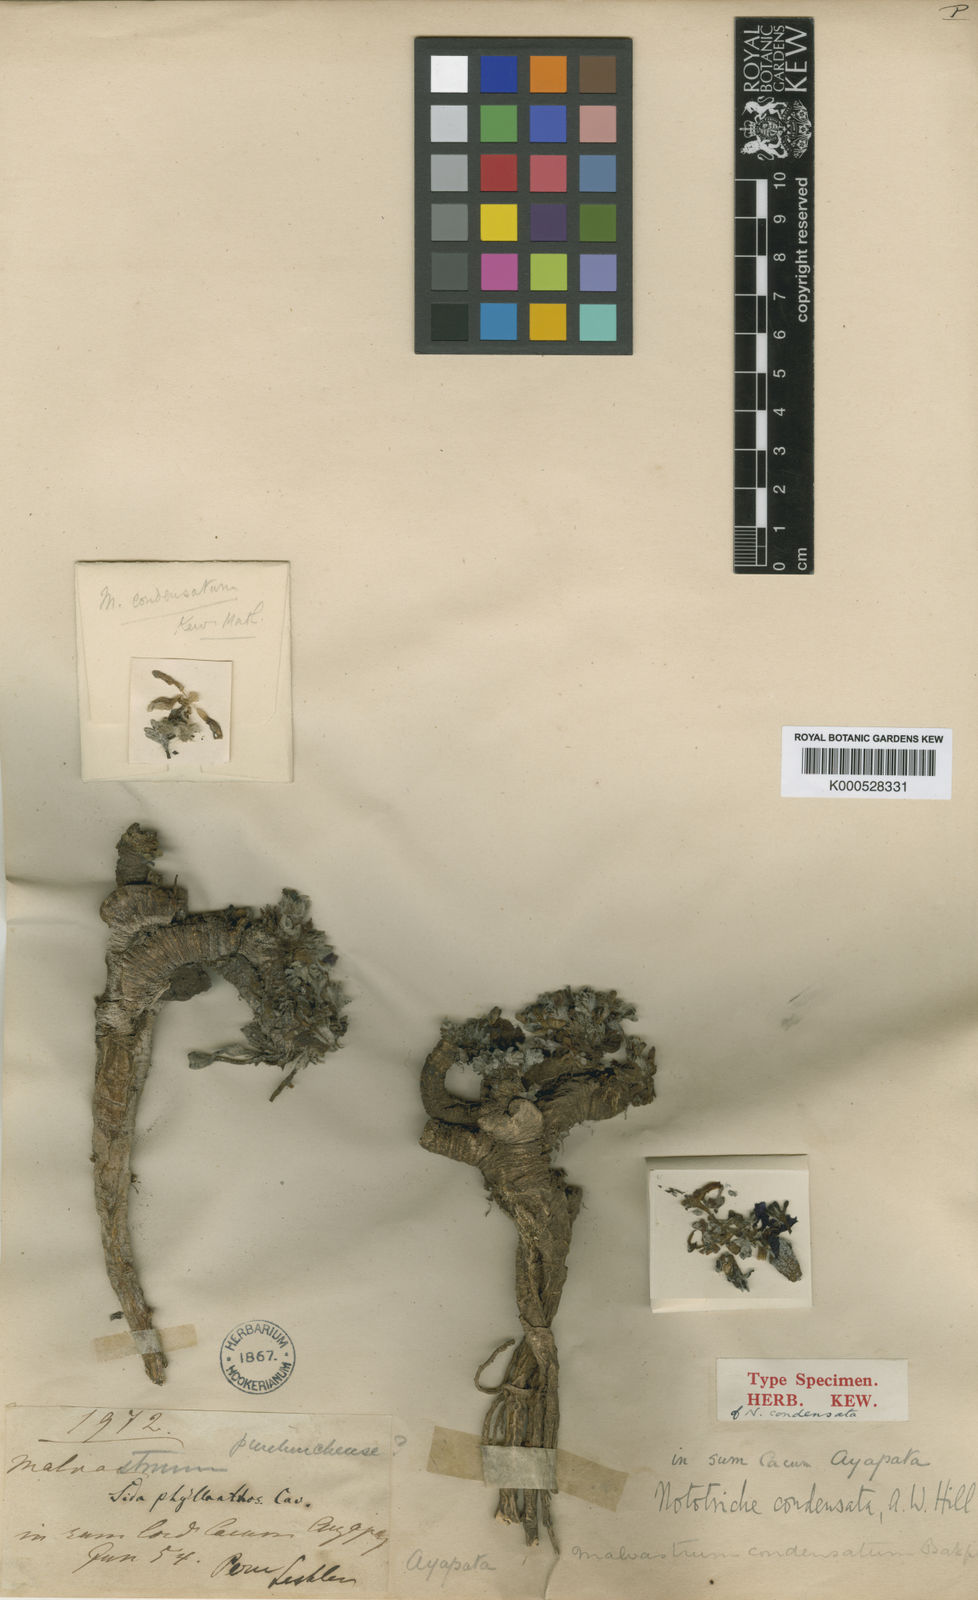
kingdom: Plantae
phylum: Tracheophyta
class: Magnoliopsida
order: Malvales
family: Malvaceae
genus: Nototriche
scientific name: Nototriche condensata
